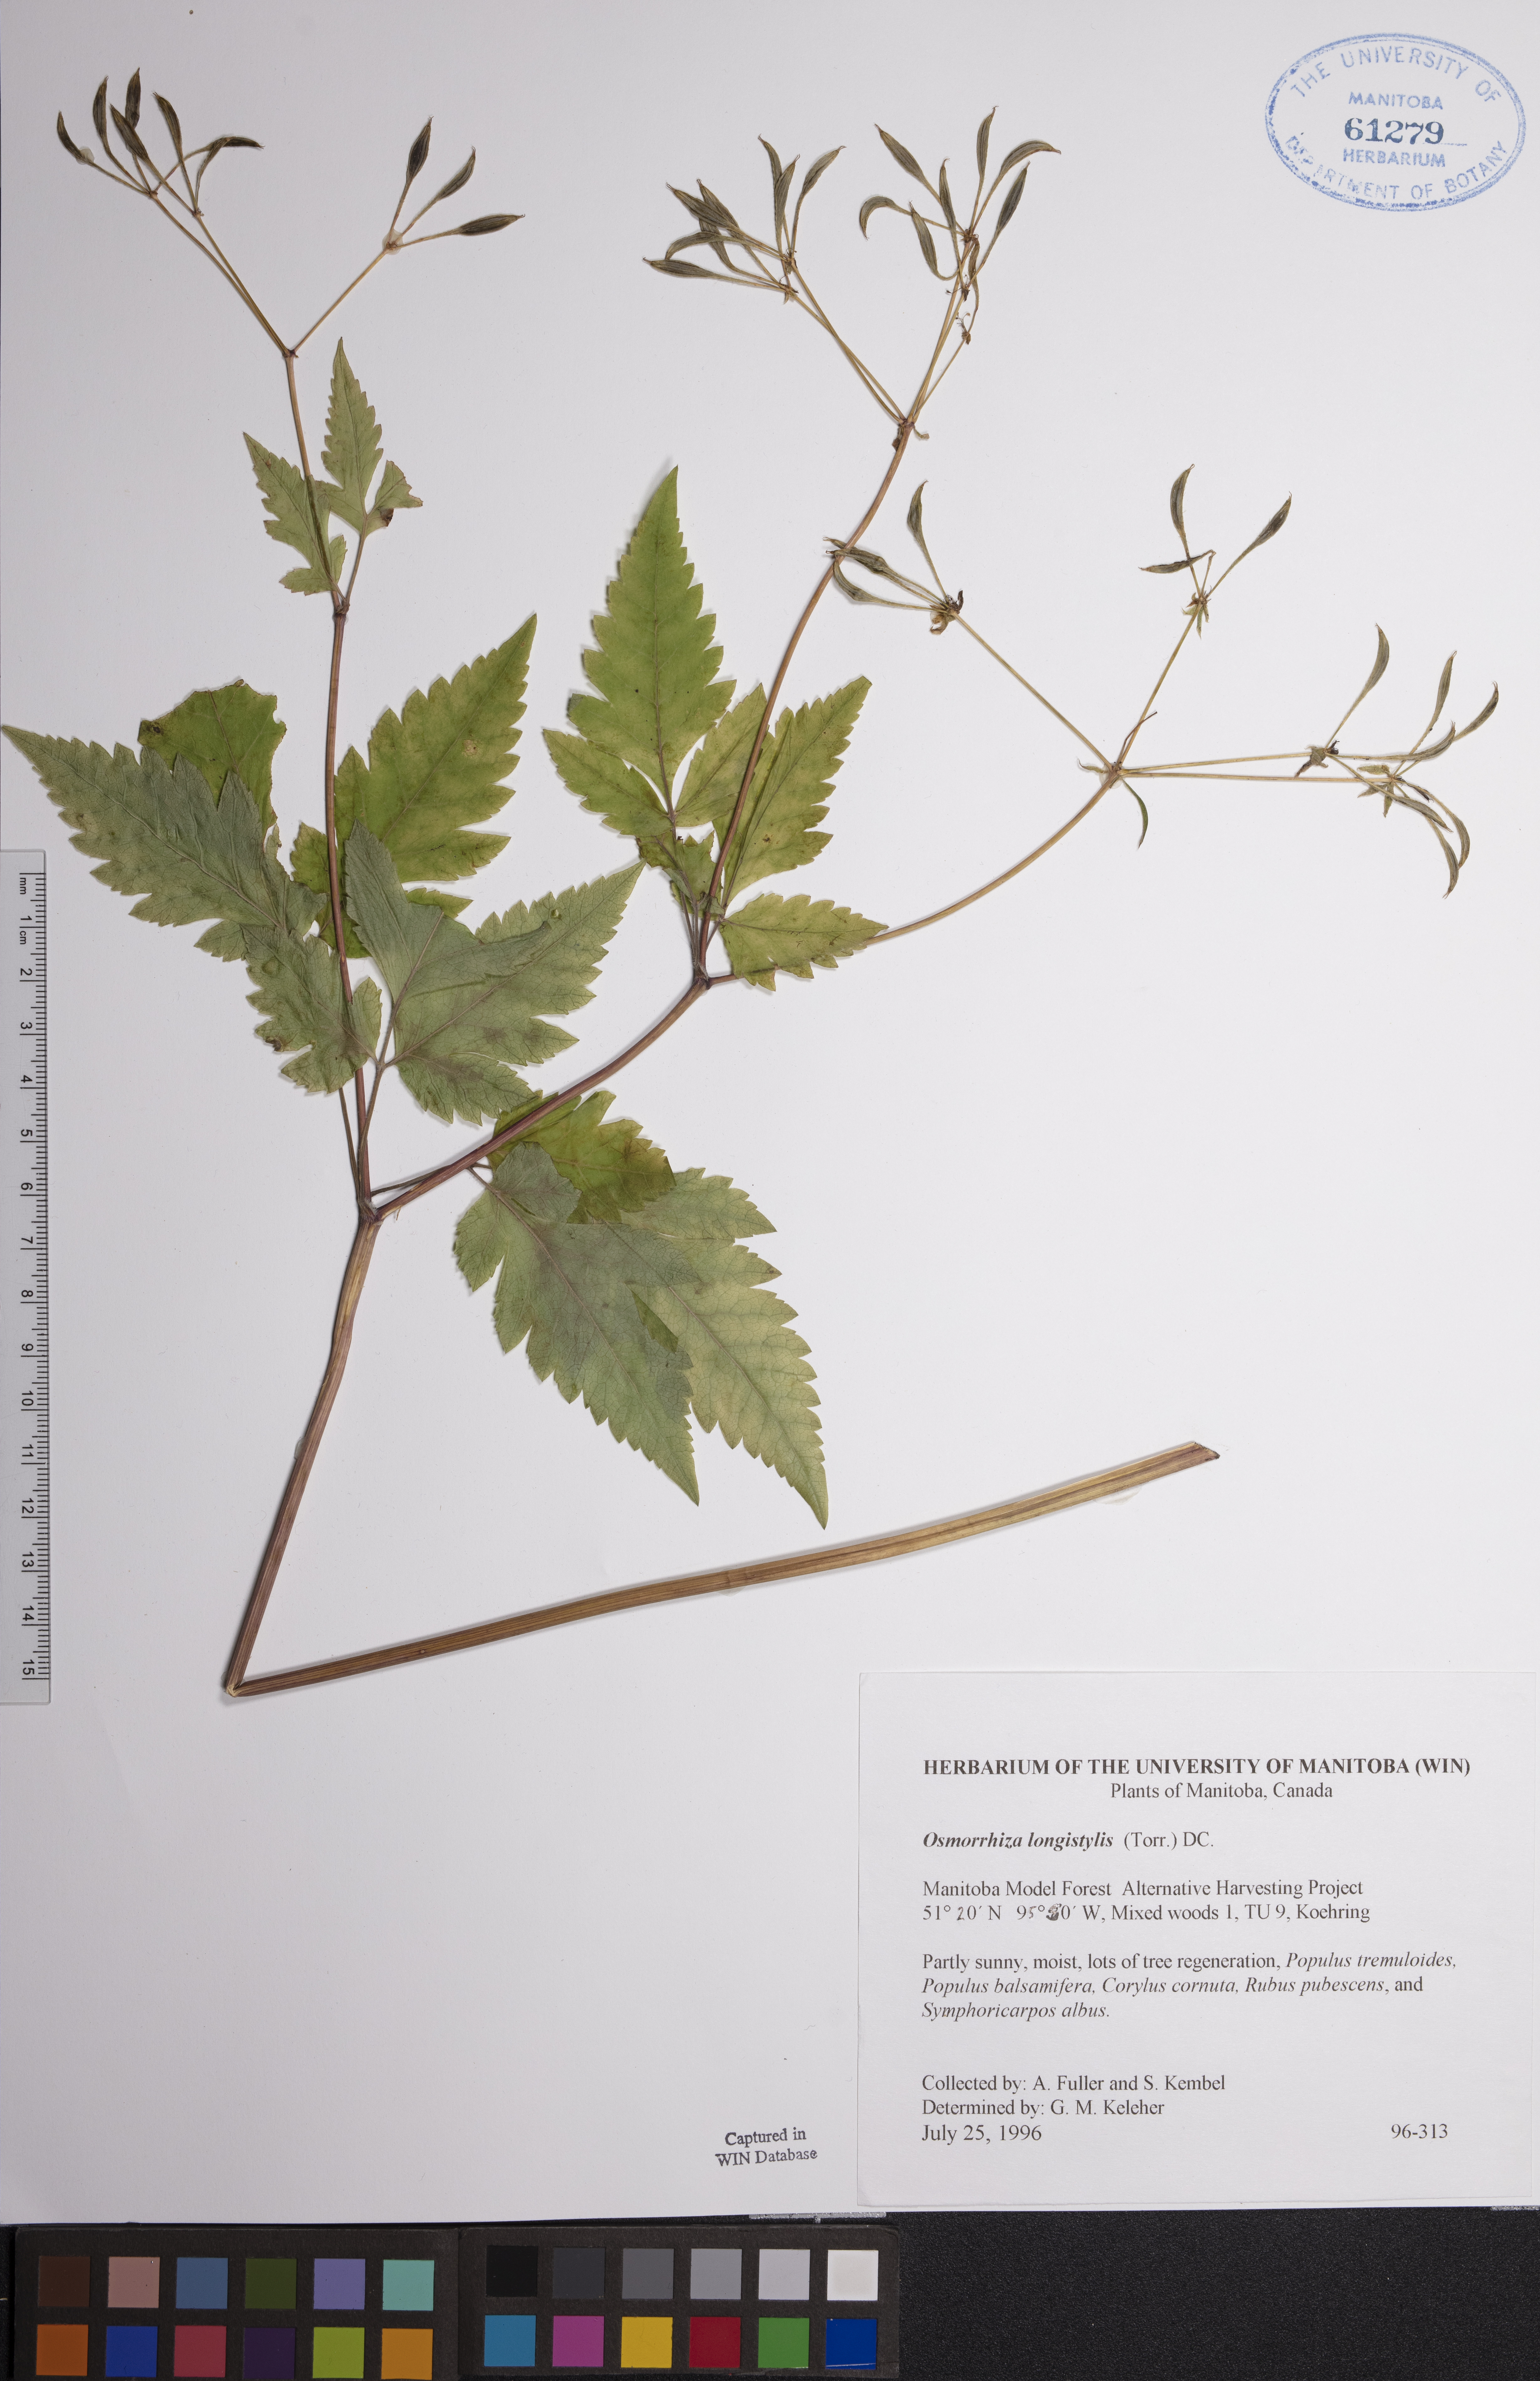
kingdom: Plantae
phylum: Tracheophyta
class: Magnoliopsida
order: Apiales
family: Apiaceae
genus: Osmorhiza
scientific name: Osmorhiza longistylis
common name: Smooth sweet cicely
